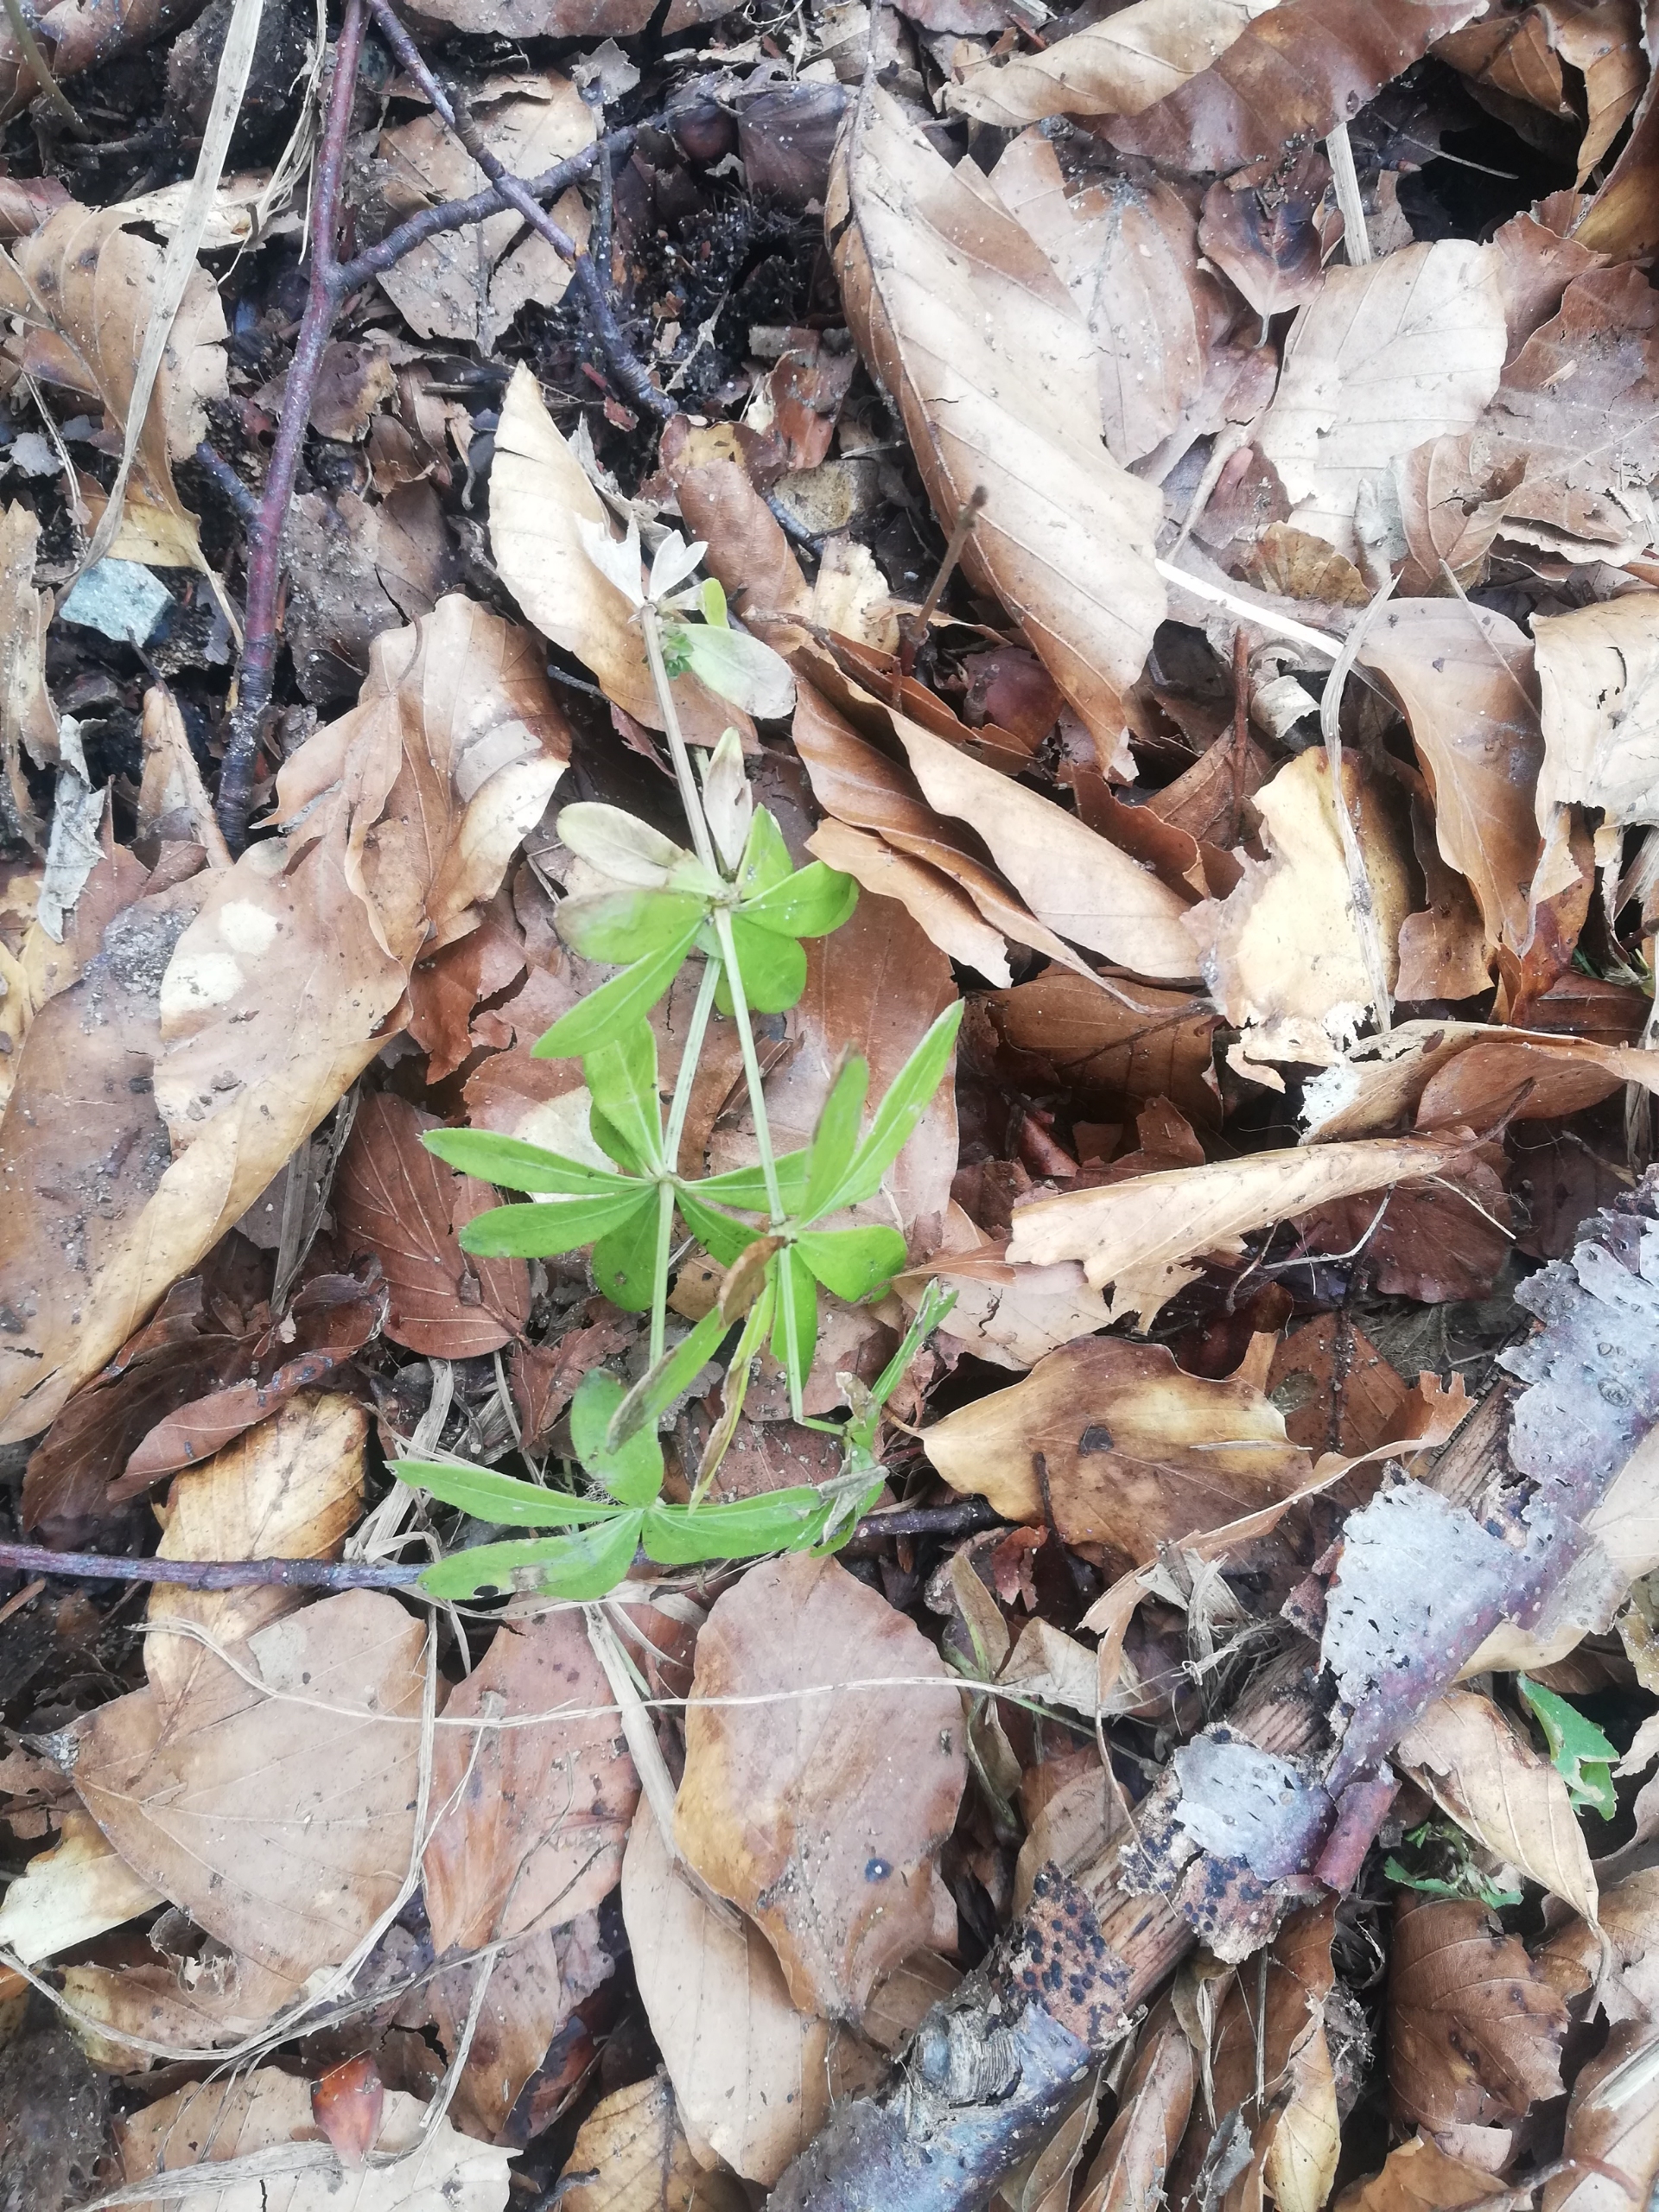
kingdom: Plantae
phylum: Tracheophyta
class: Magnoliopsida
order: Gentianales
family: Rubiaceae
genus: Galium
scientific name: Galium odoratum
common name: Skovmærke
